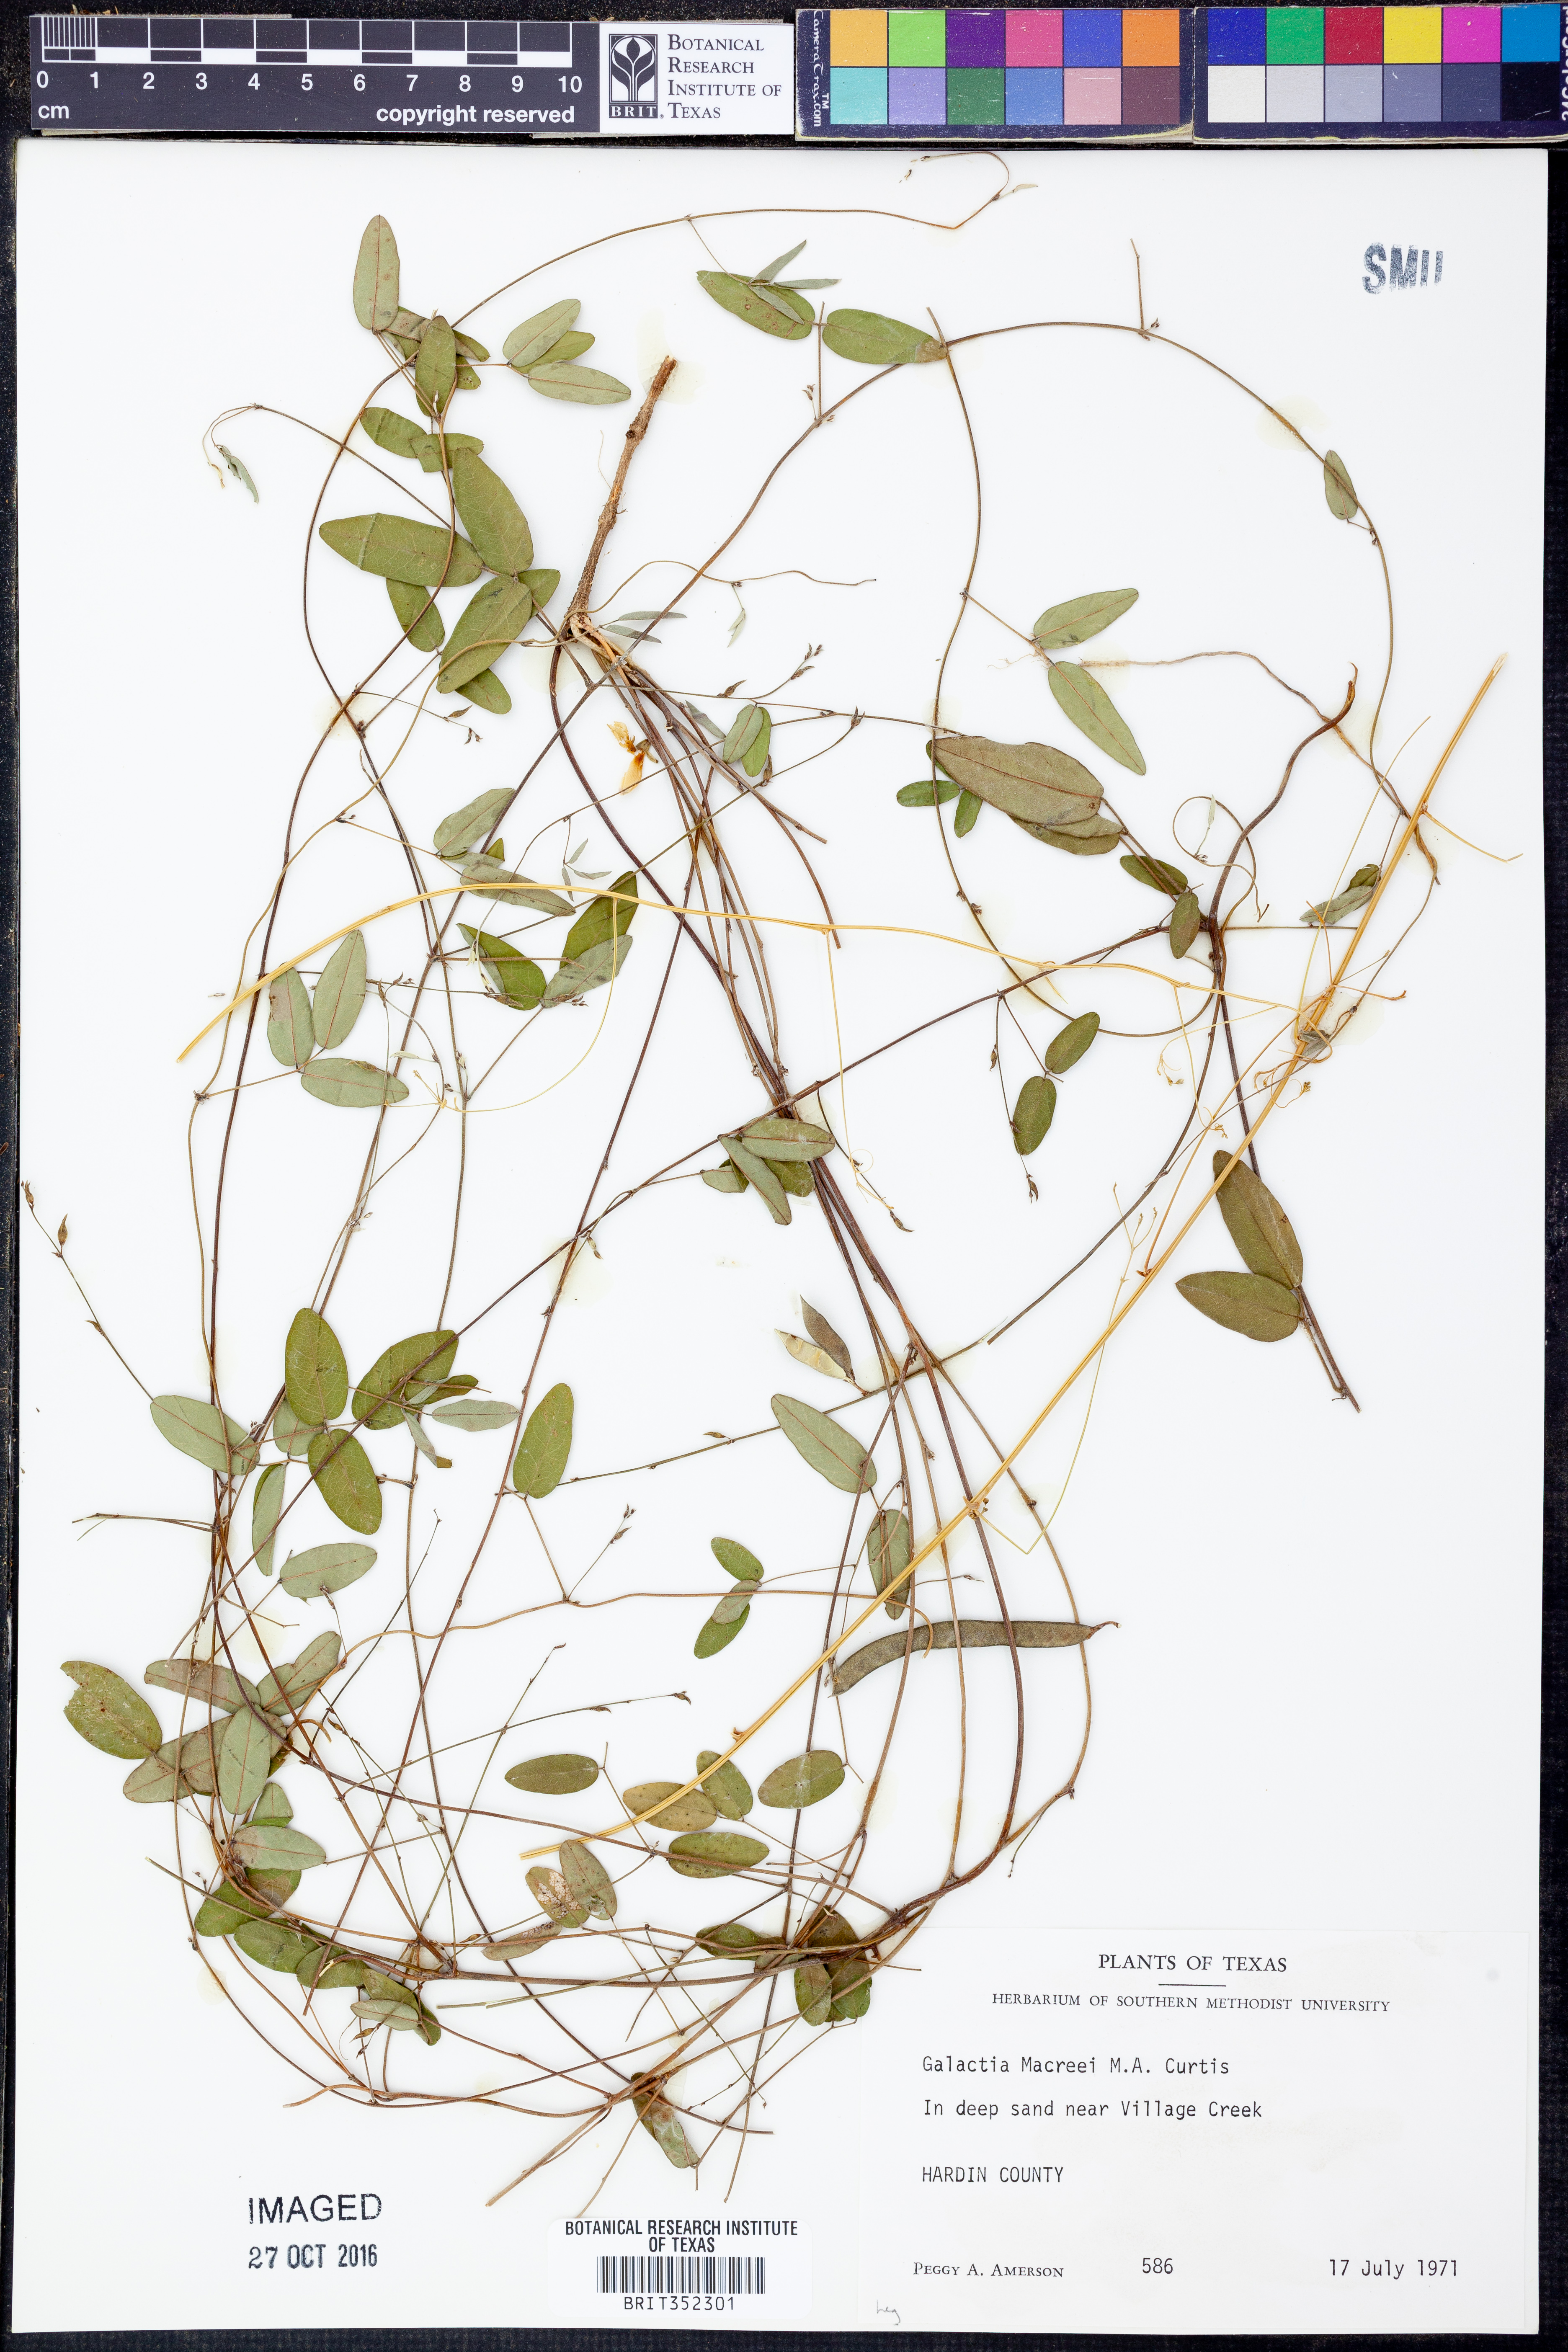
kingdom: Plantae
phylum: Tracheophyta
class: Magnoliopsida
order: Fabales
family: Fabaceae
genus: Galactia
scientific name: Galactia volubilis
